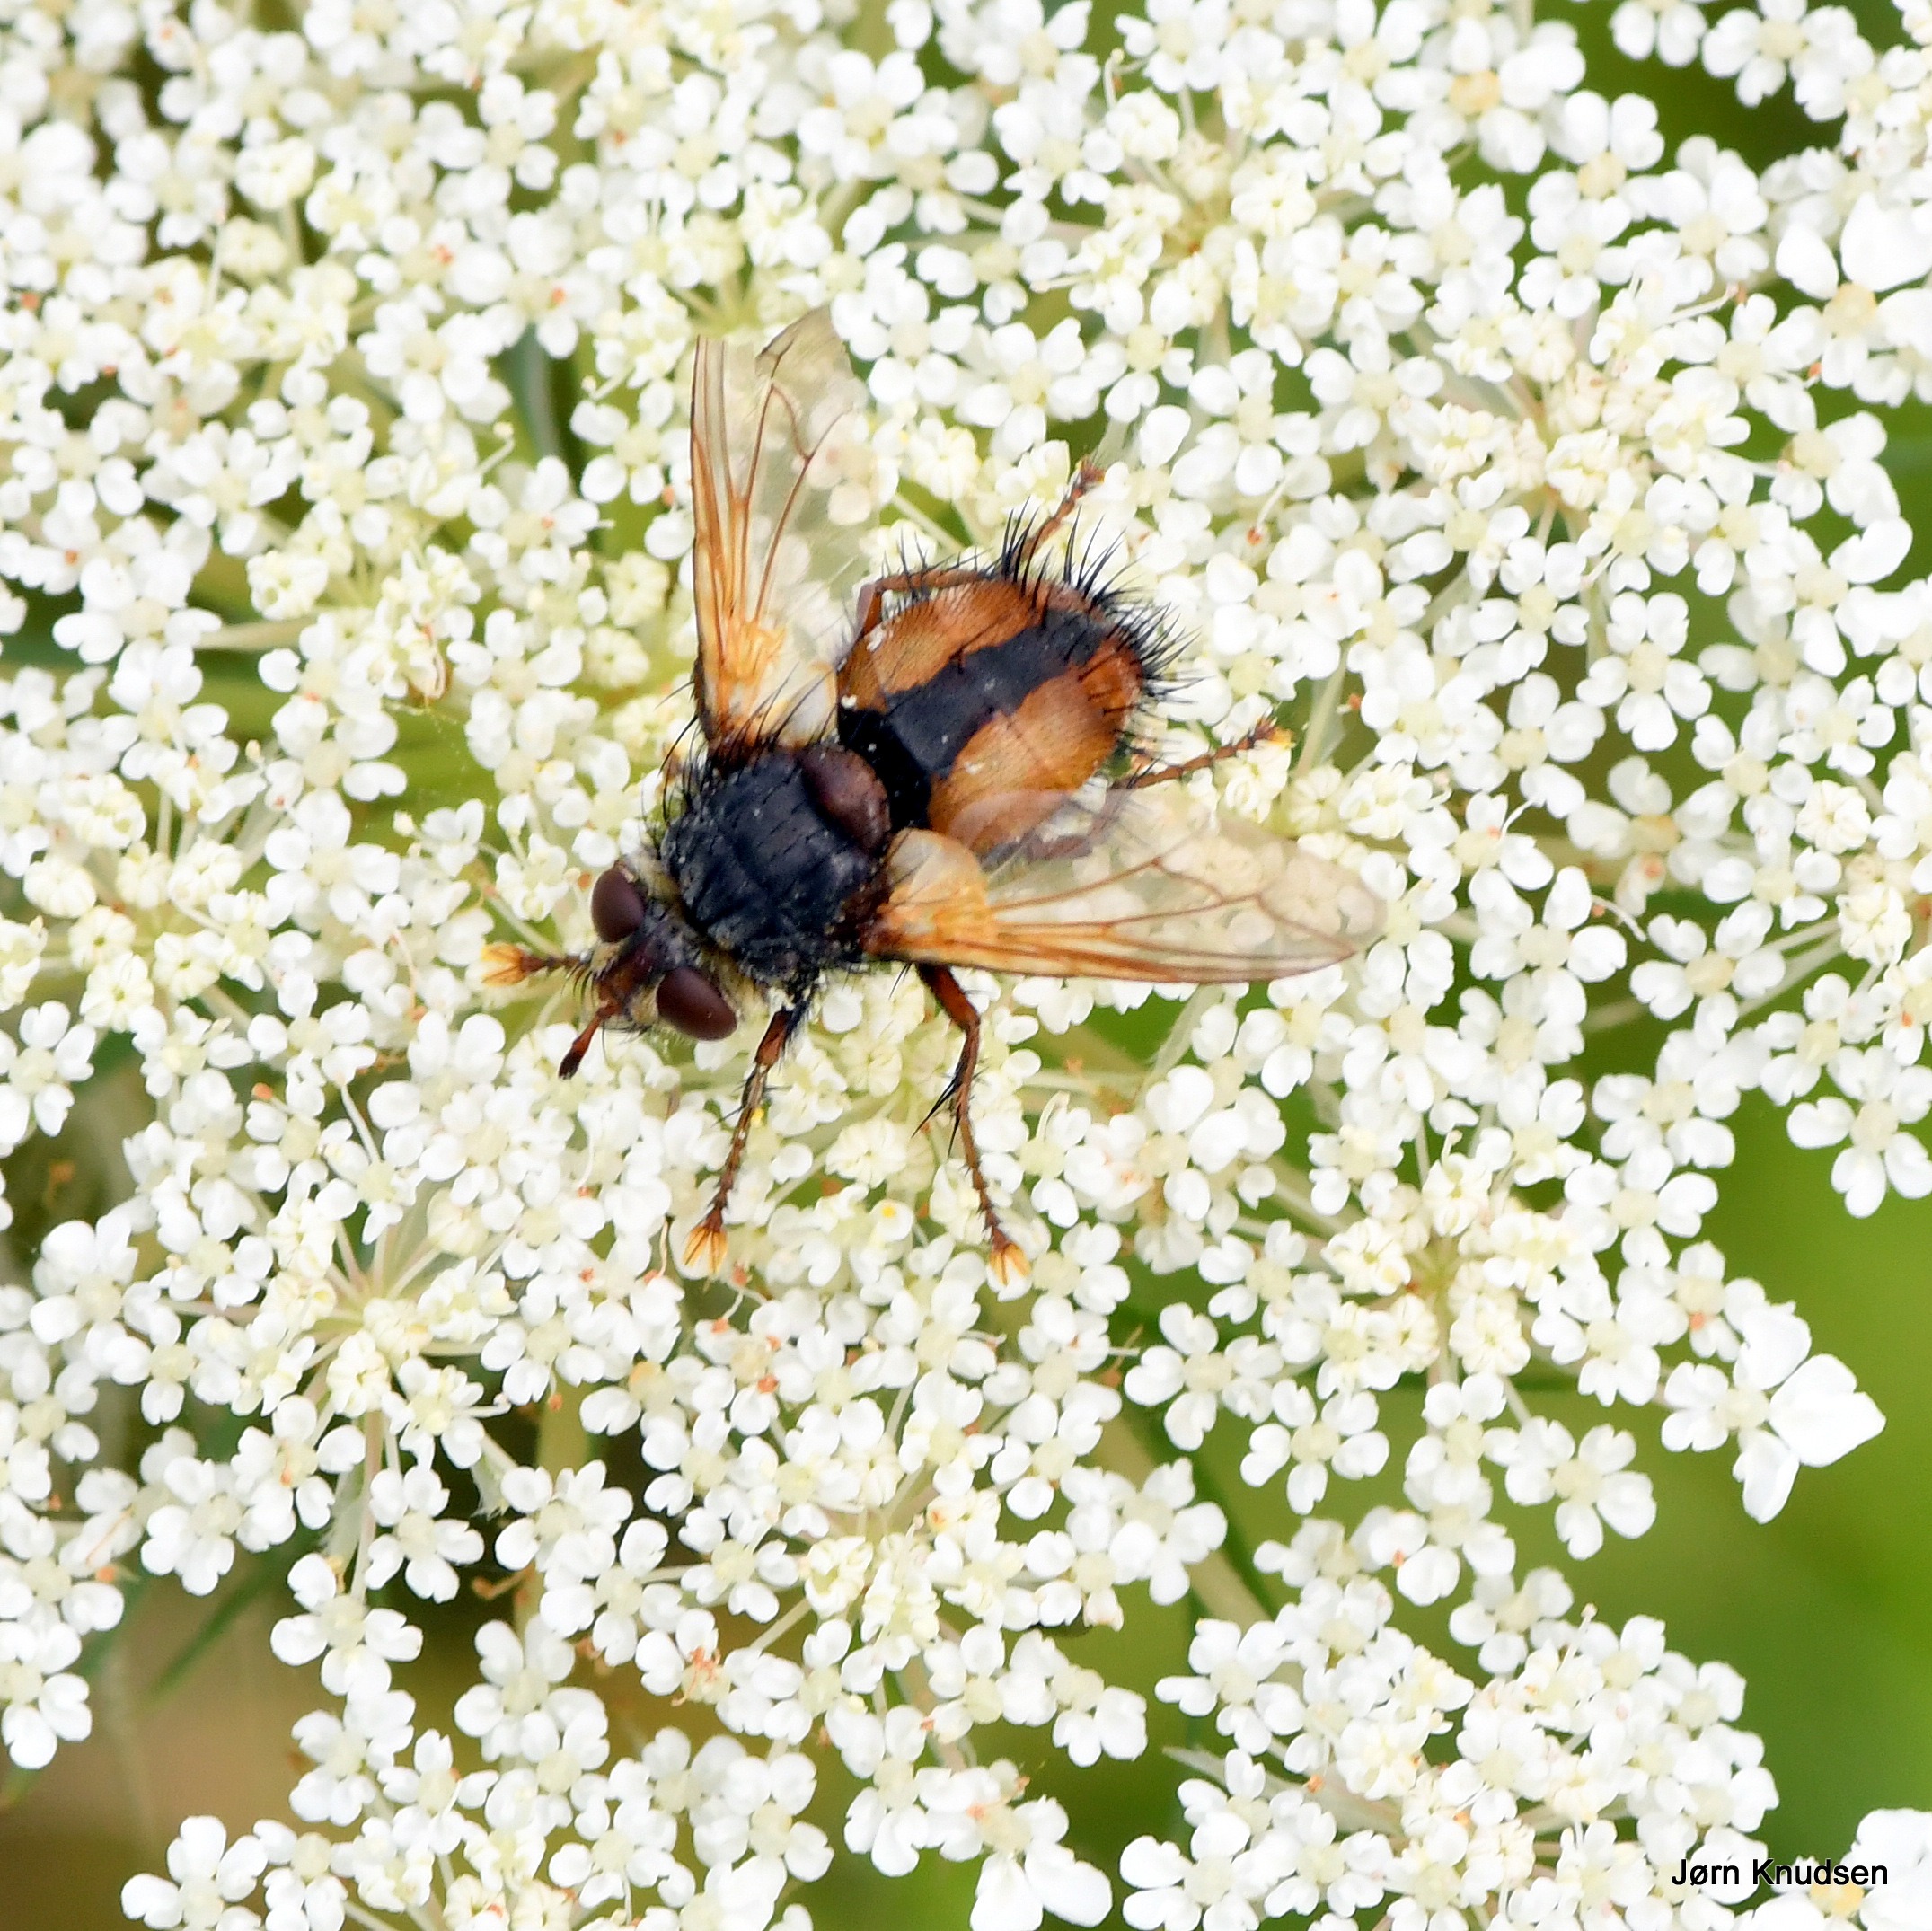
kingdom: Animalia
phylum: Arthropoda
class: Insecta
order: Diptera
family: Tachinidae
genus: Tachina
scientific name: Tachina fera
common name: Mellemfluen oskar
